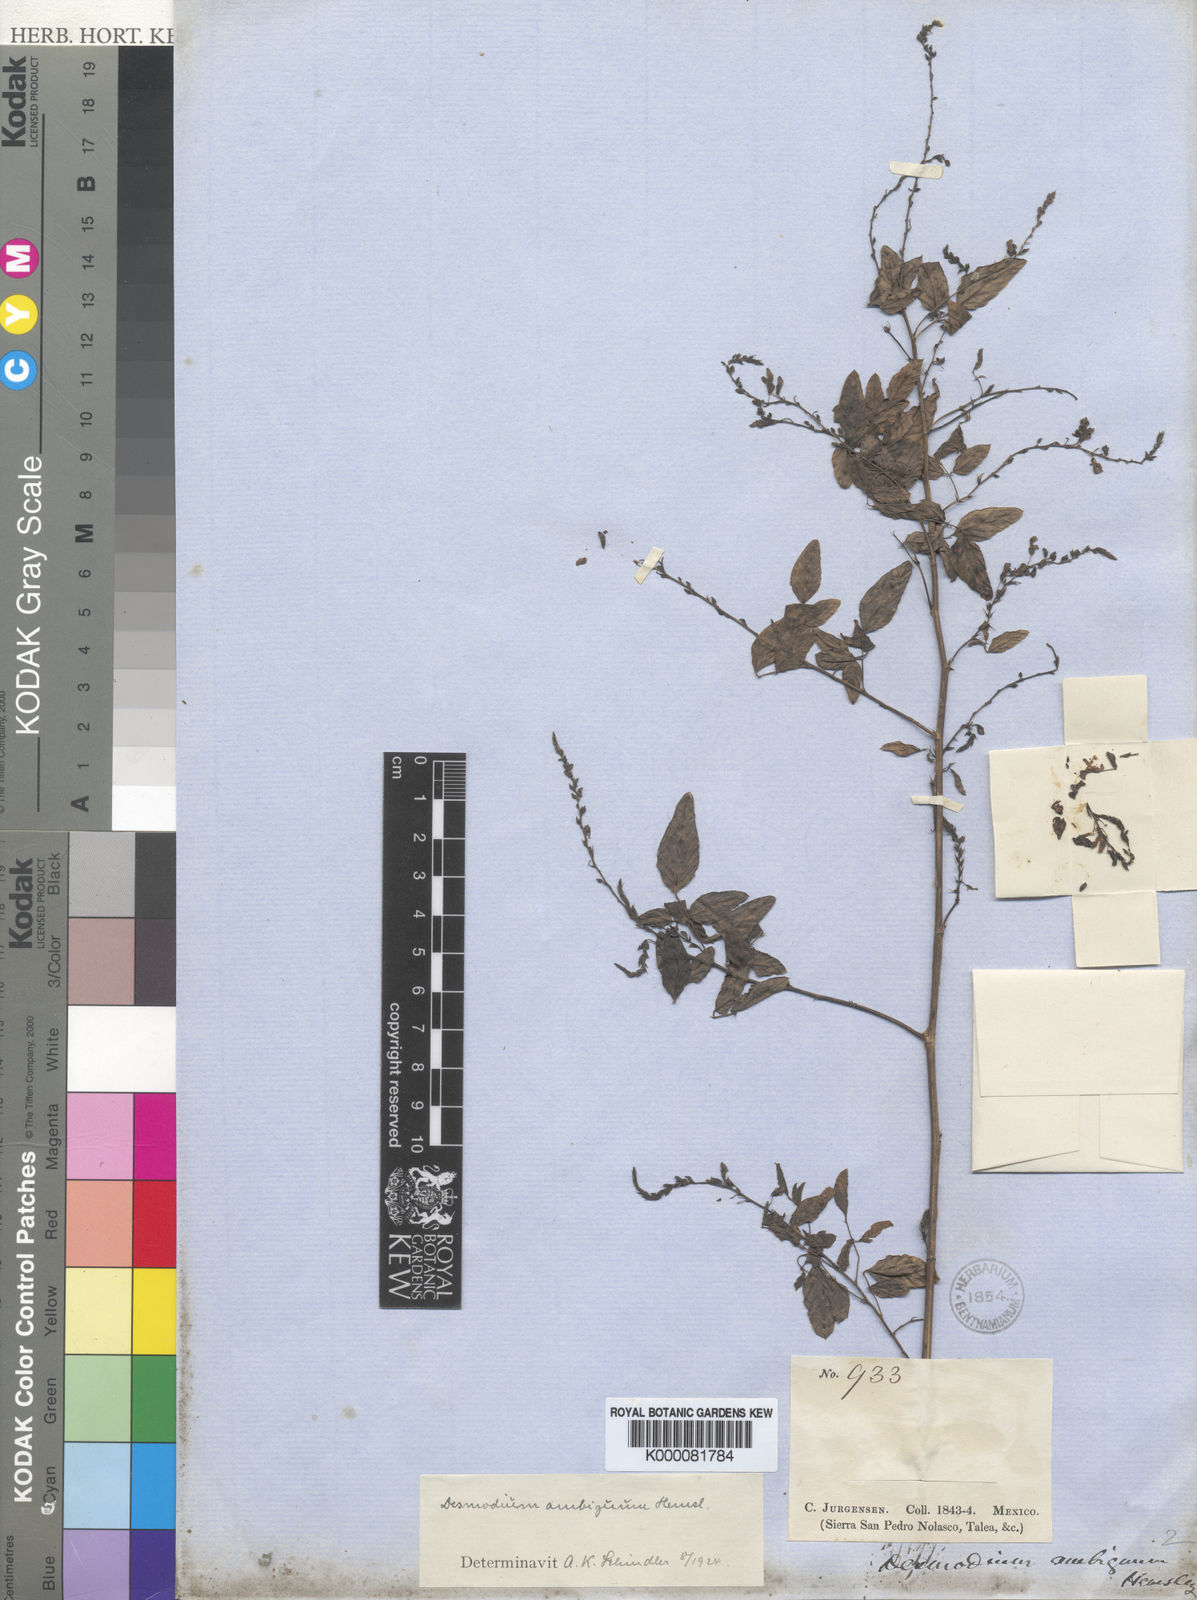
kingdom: Plantae
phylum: Tracheophyta
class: Magnoliopsida
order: Fabales
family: Fabaceae
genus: Desmodium
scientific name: Desmodium ambiguum
